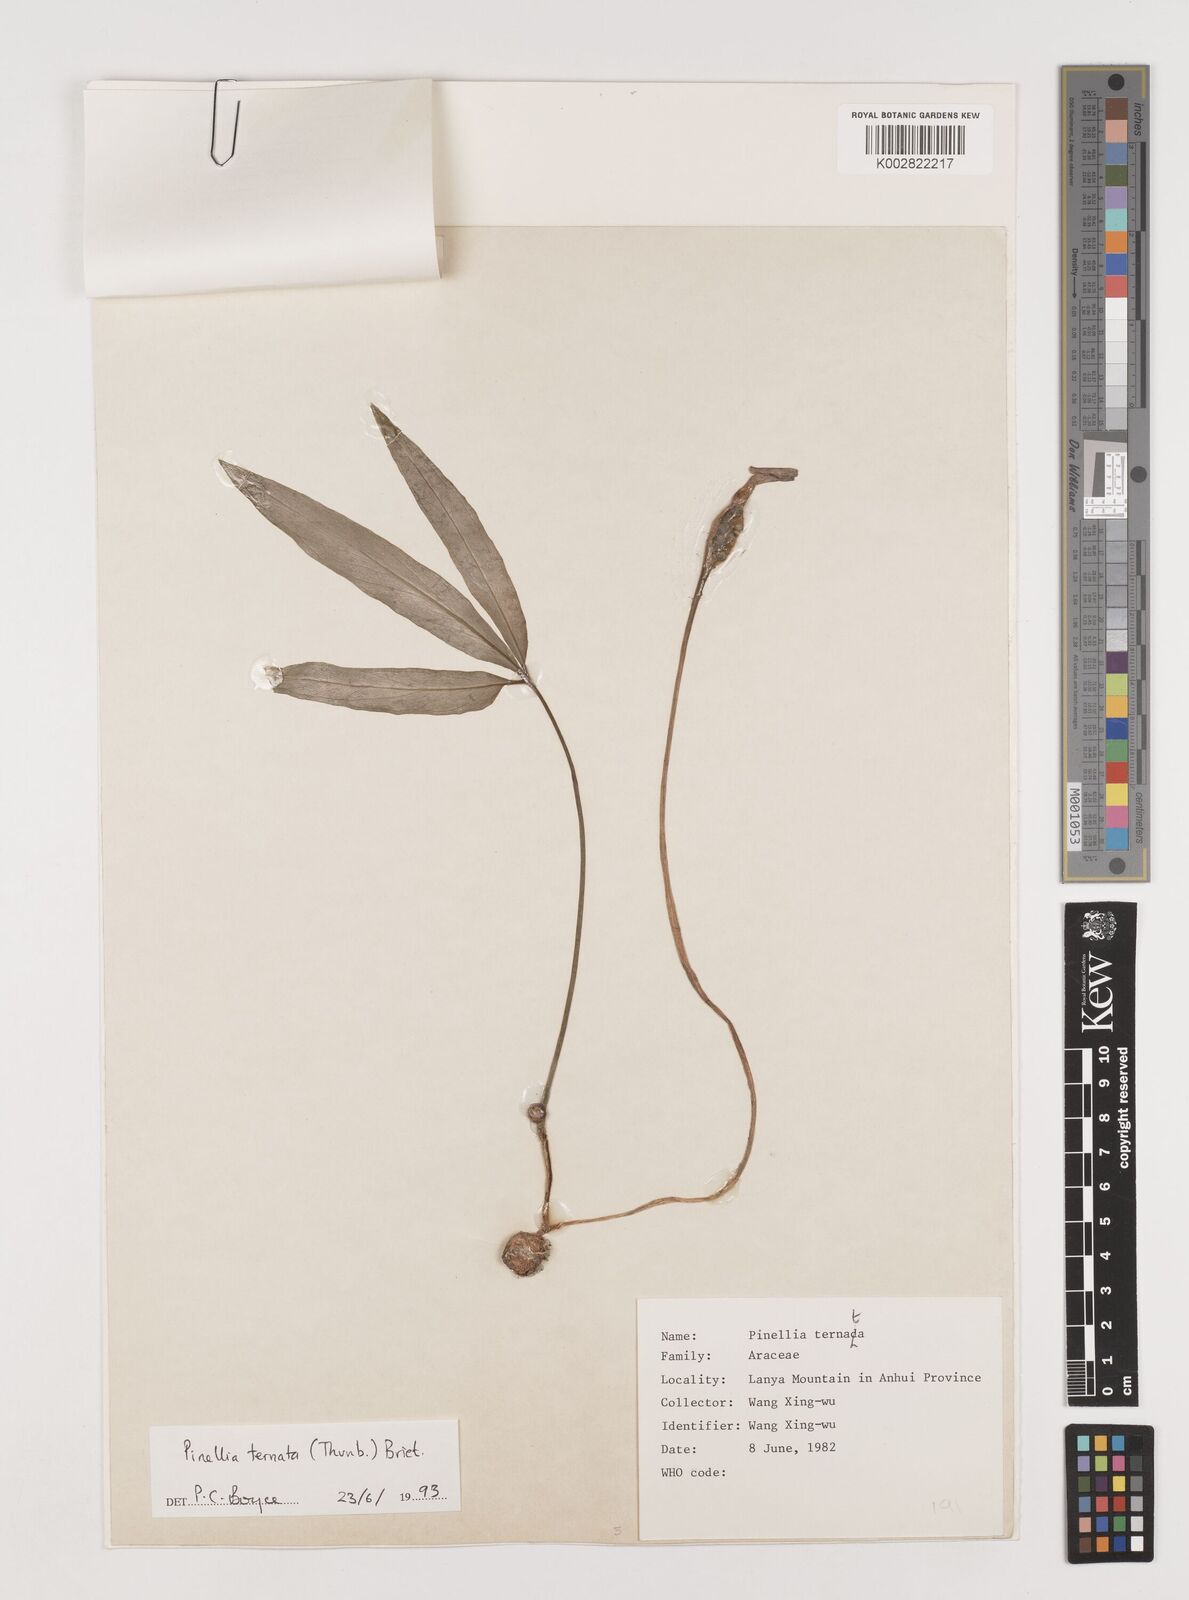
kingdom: Plantae
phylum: Tracheophyta
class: Liliopsida
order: Alismatales
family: Araceae
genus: Pinellia
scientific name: Pinellia ternata
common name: Pinellia
